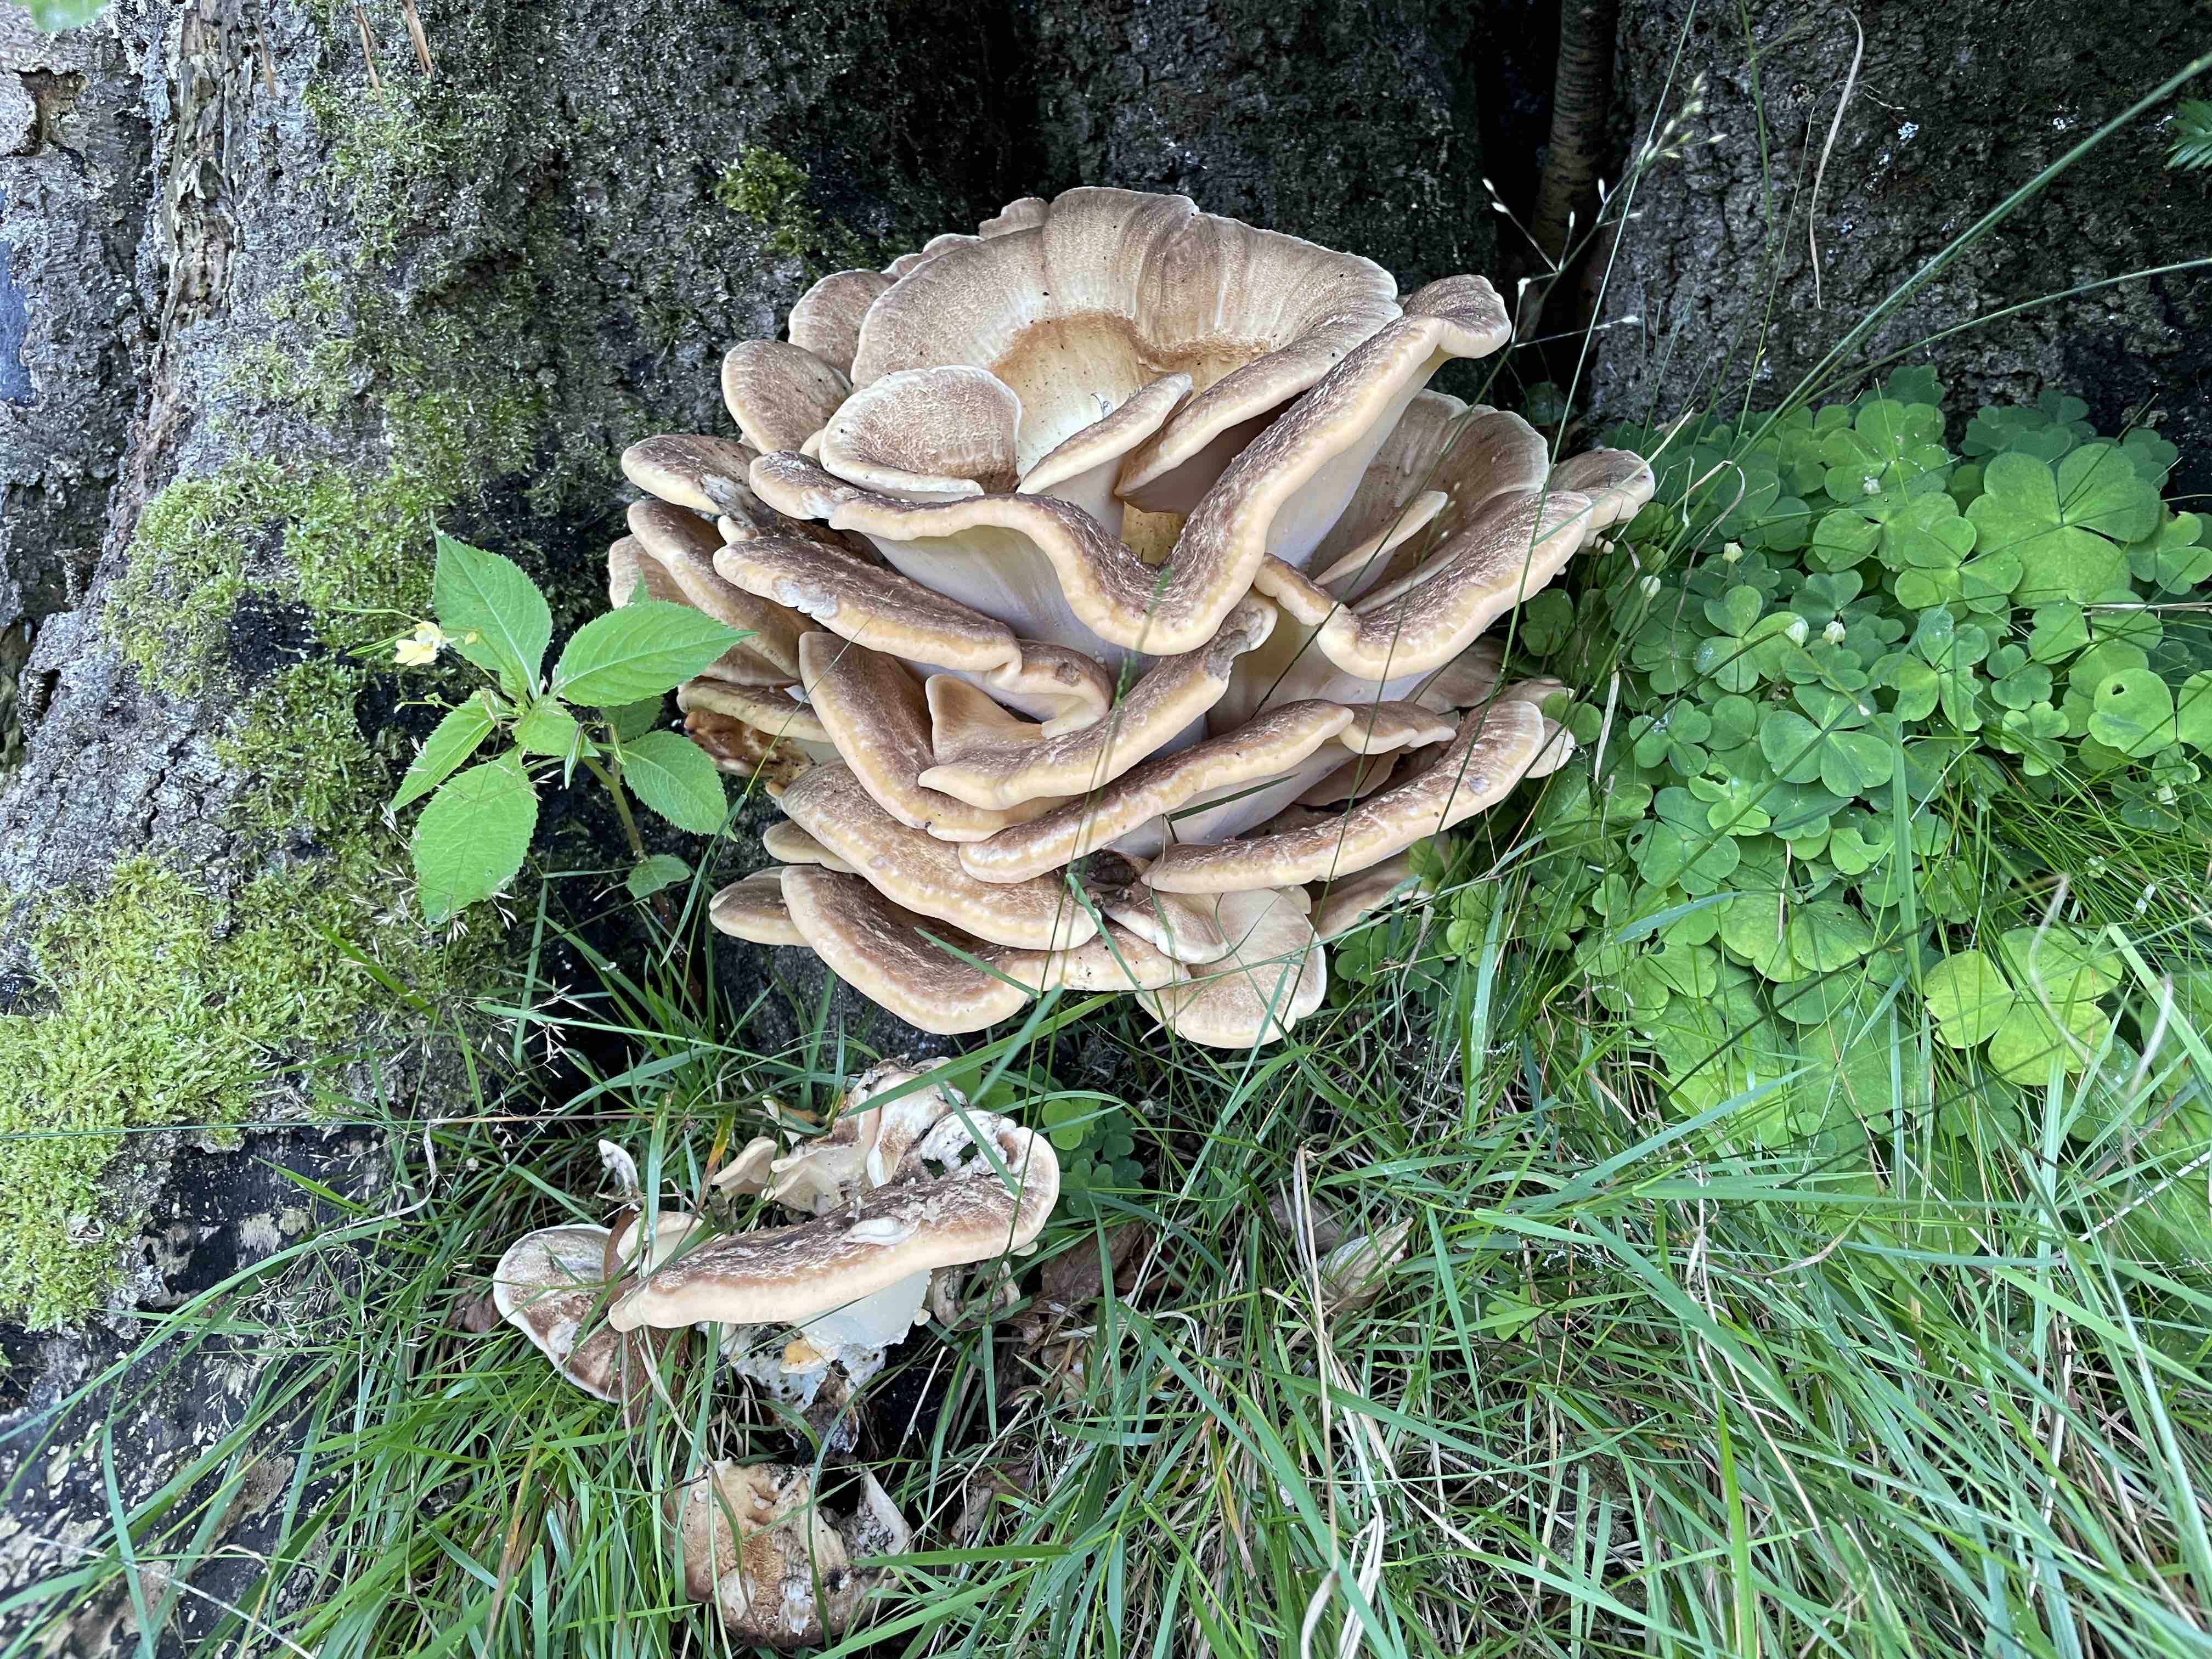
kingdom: Fungi
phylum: Basidiomycota
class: Agaricomycetes
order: Polyporales
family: Meripilaceae
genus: Meripilus
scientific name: Meripilus giganteus
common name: kæmpeporesvamp
